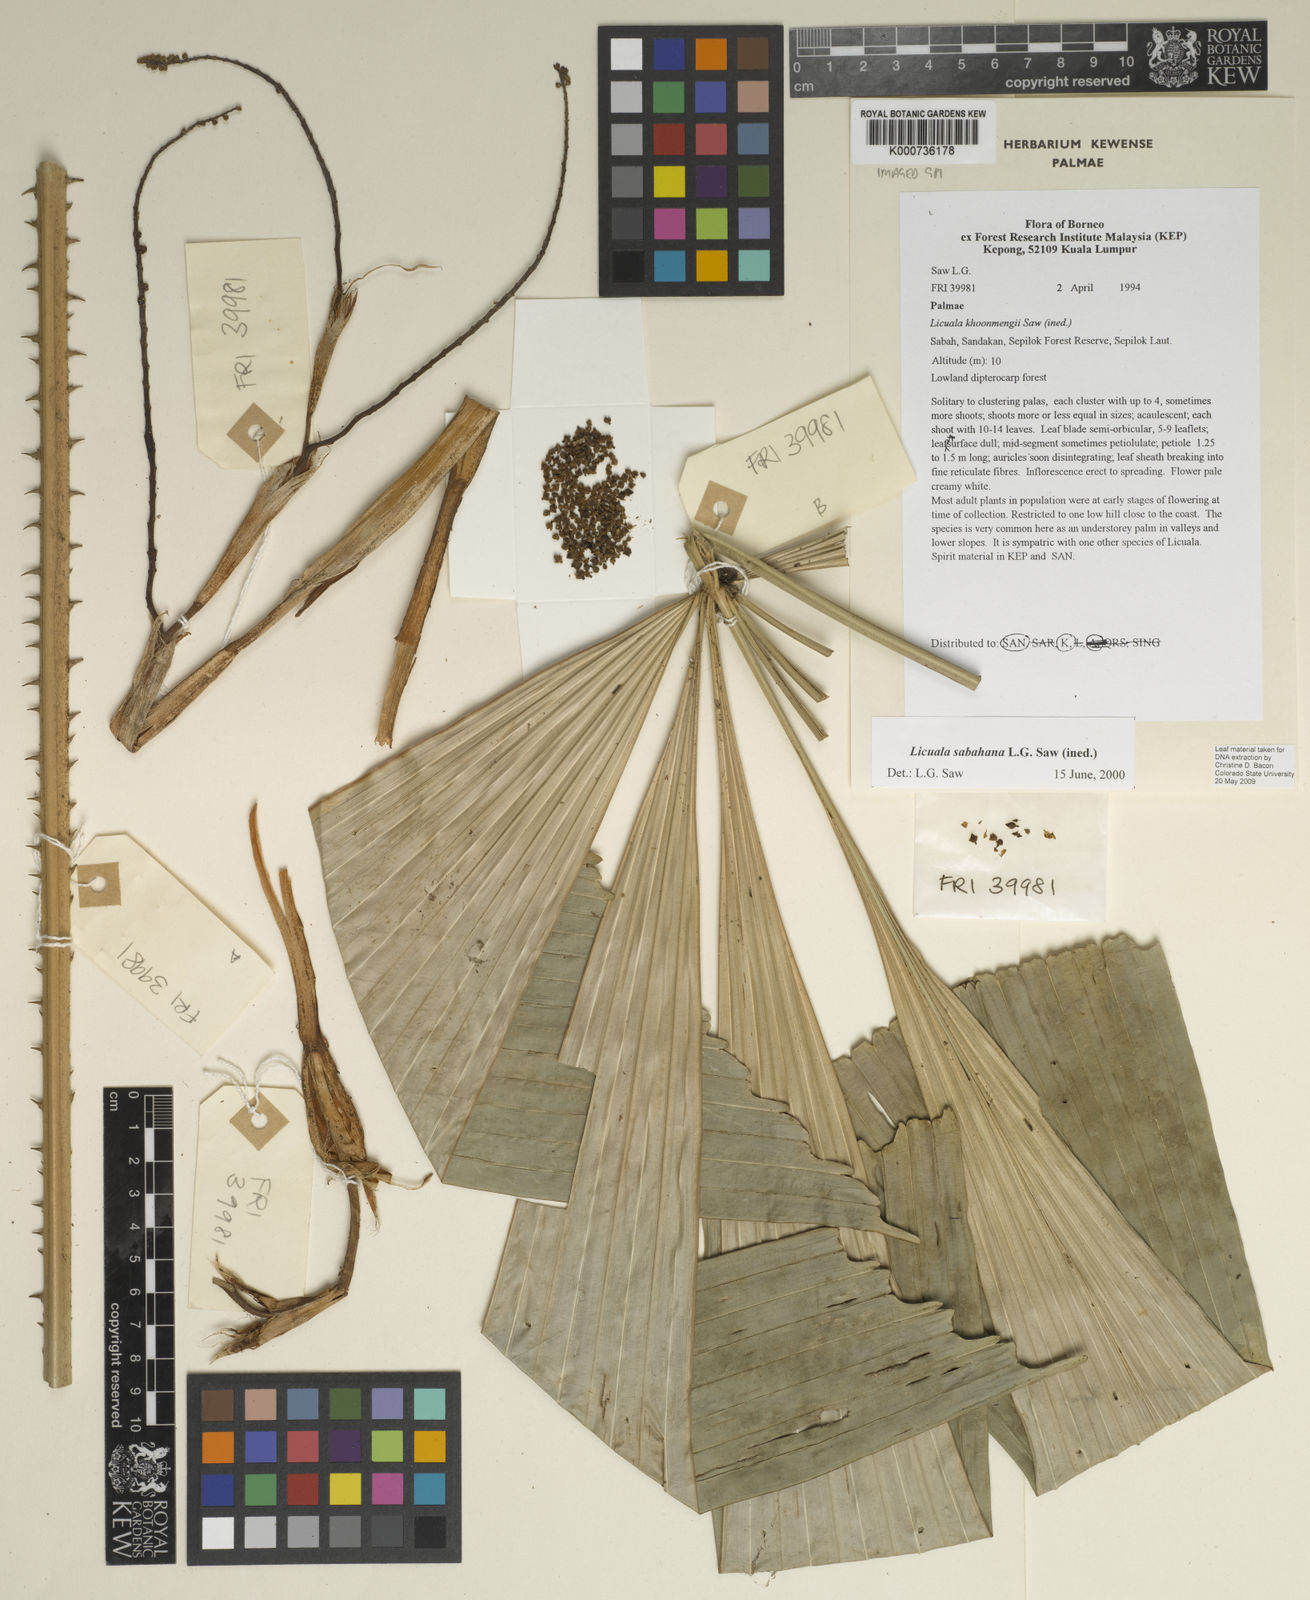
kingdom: Plantae
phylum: Tracheophyta
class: Liliopsida
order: Arecales
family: Arecaceae
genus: Licuala
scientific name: Licuala sabahana
